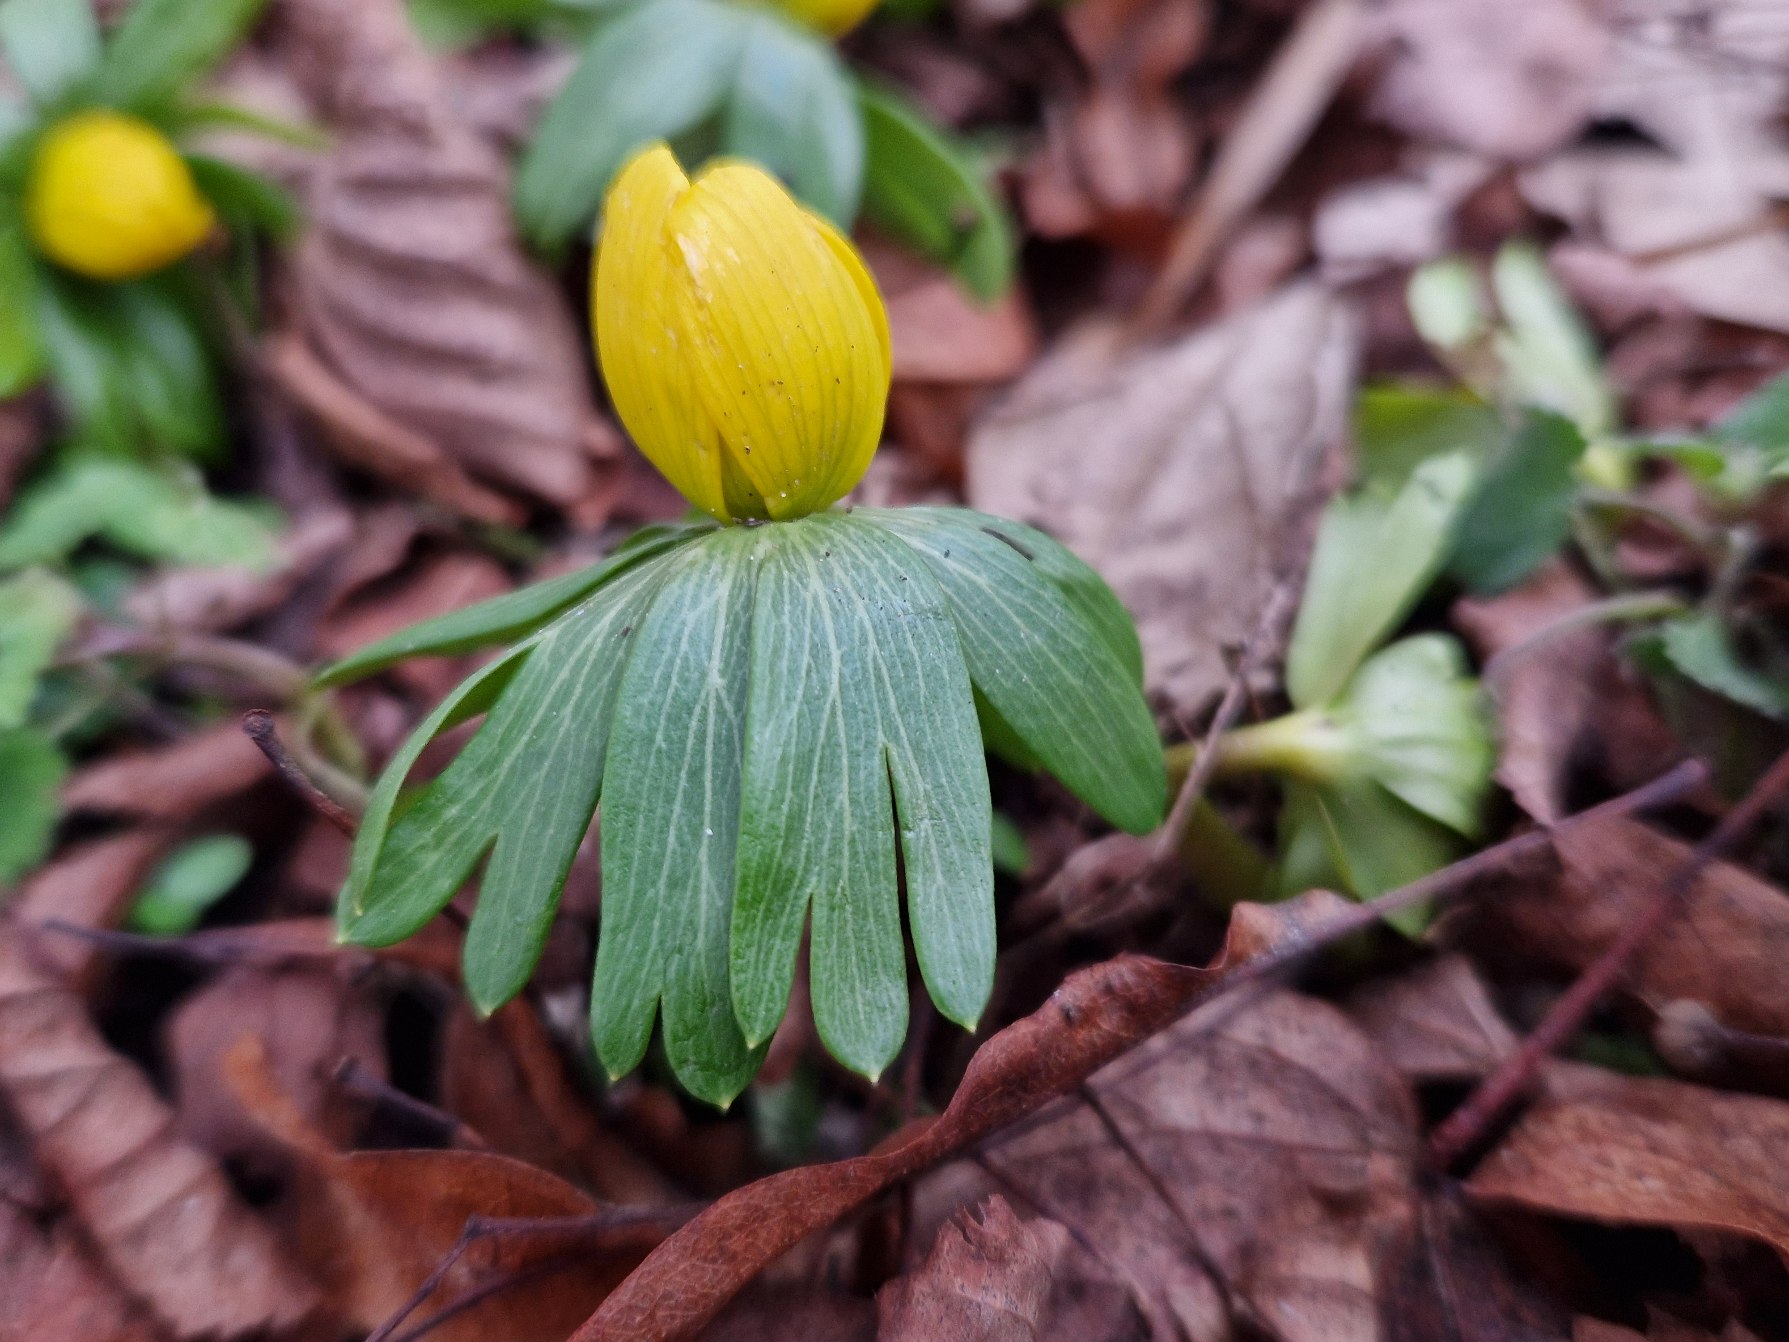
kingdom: Plantae
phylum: Tracheophyta
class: Magnoliopsida
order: Ranunculales
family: Ranunculaceae
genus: Eranthis
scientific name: Eranthis hyemalis
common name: Erantis
